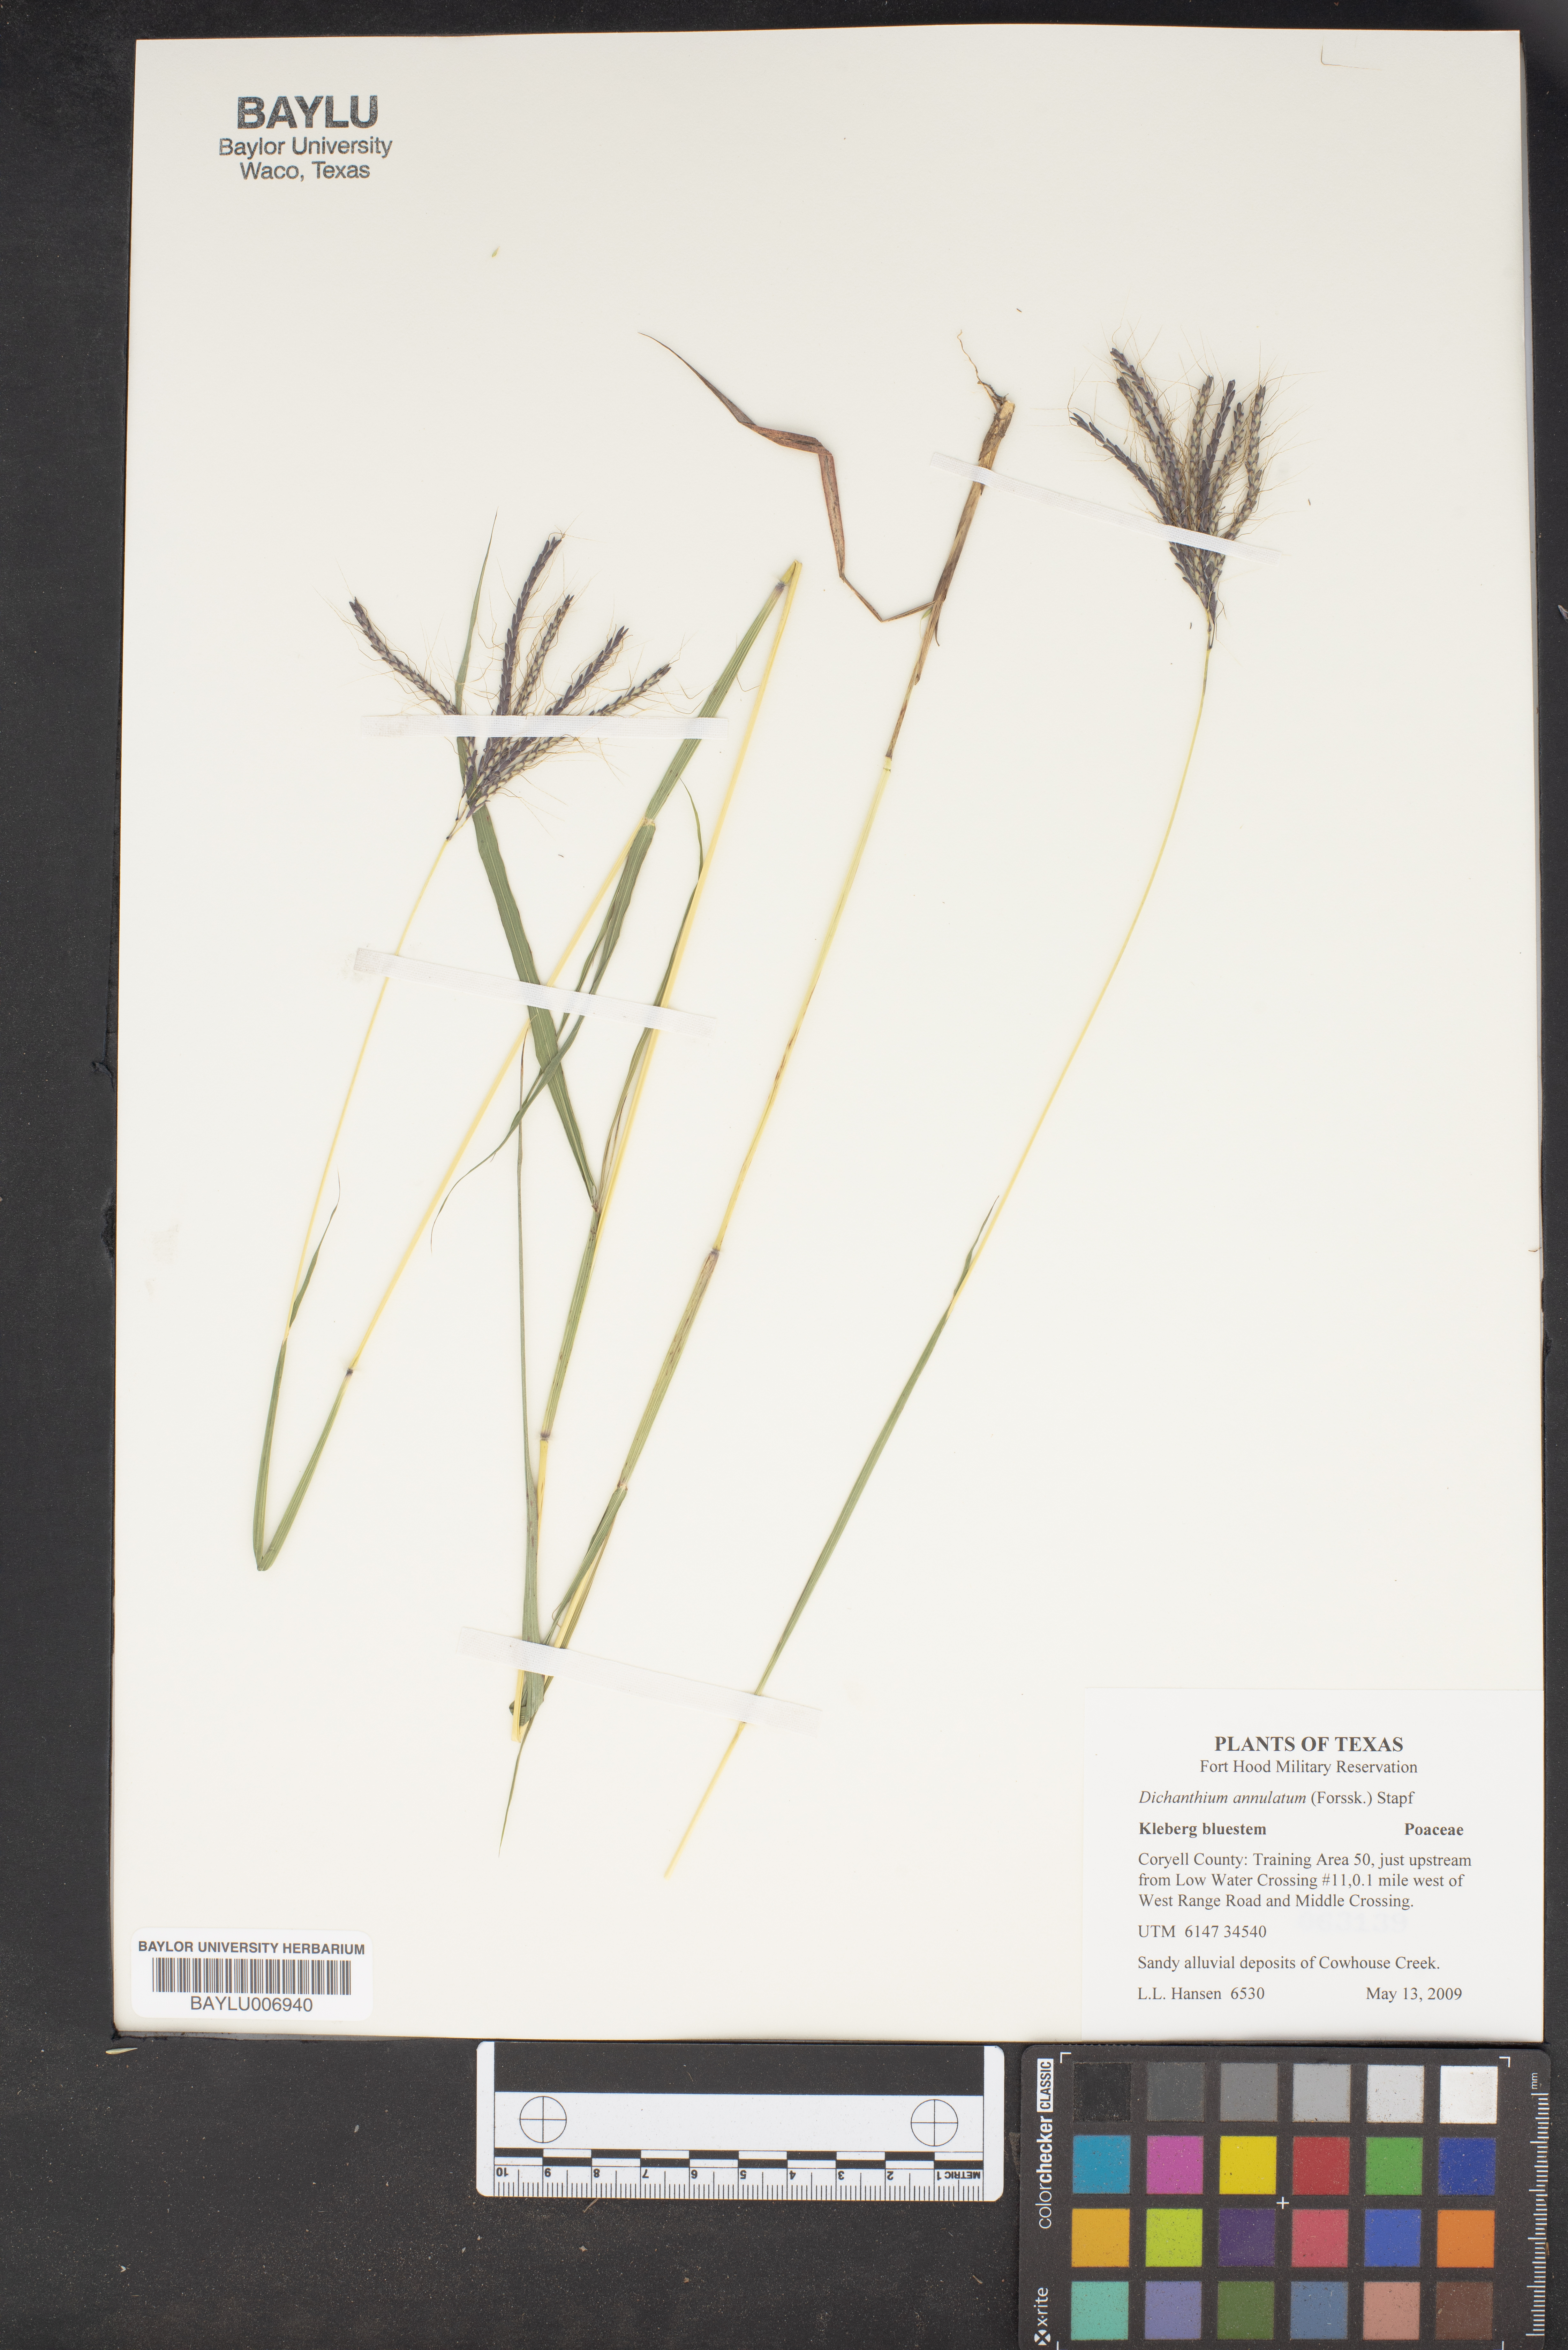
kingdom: Plantae
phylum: Tracheophyta
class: Liliopsida
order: Poales
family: Poaceae
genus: Dichanthium
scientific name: Dichanthium annulatum
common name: Kleberg's bluestem
